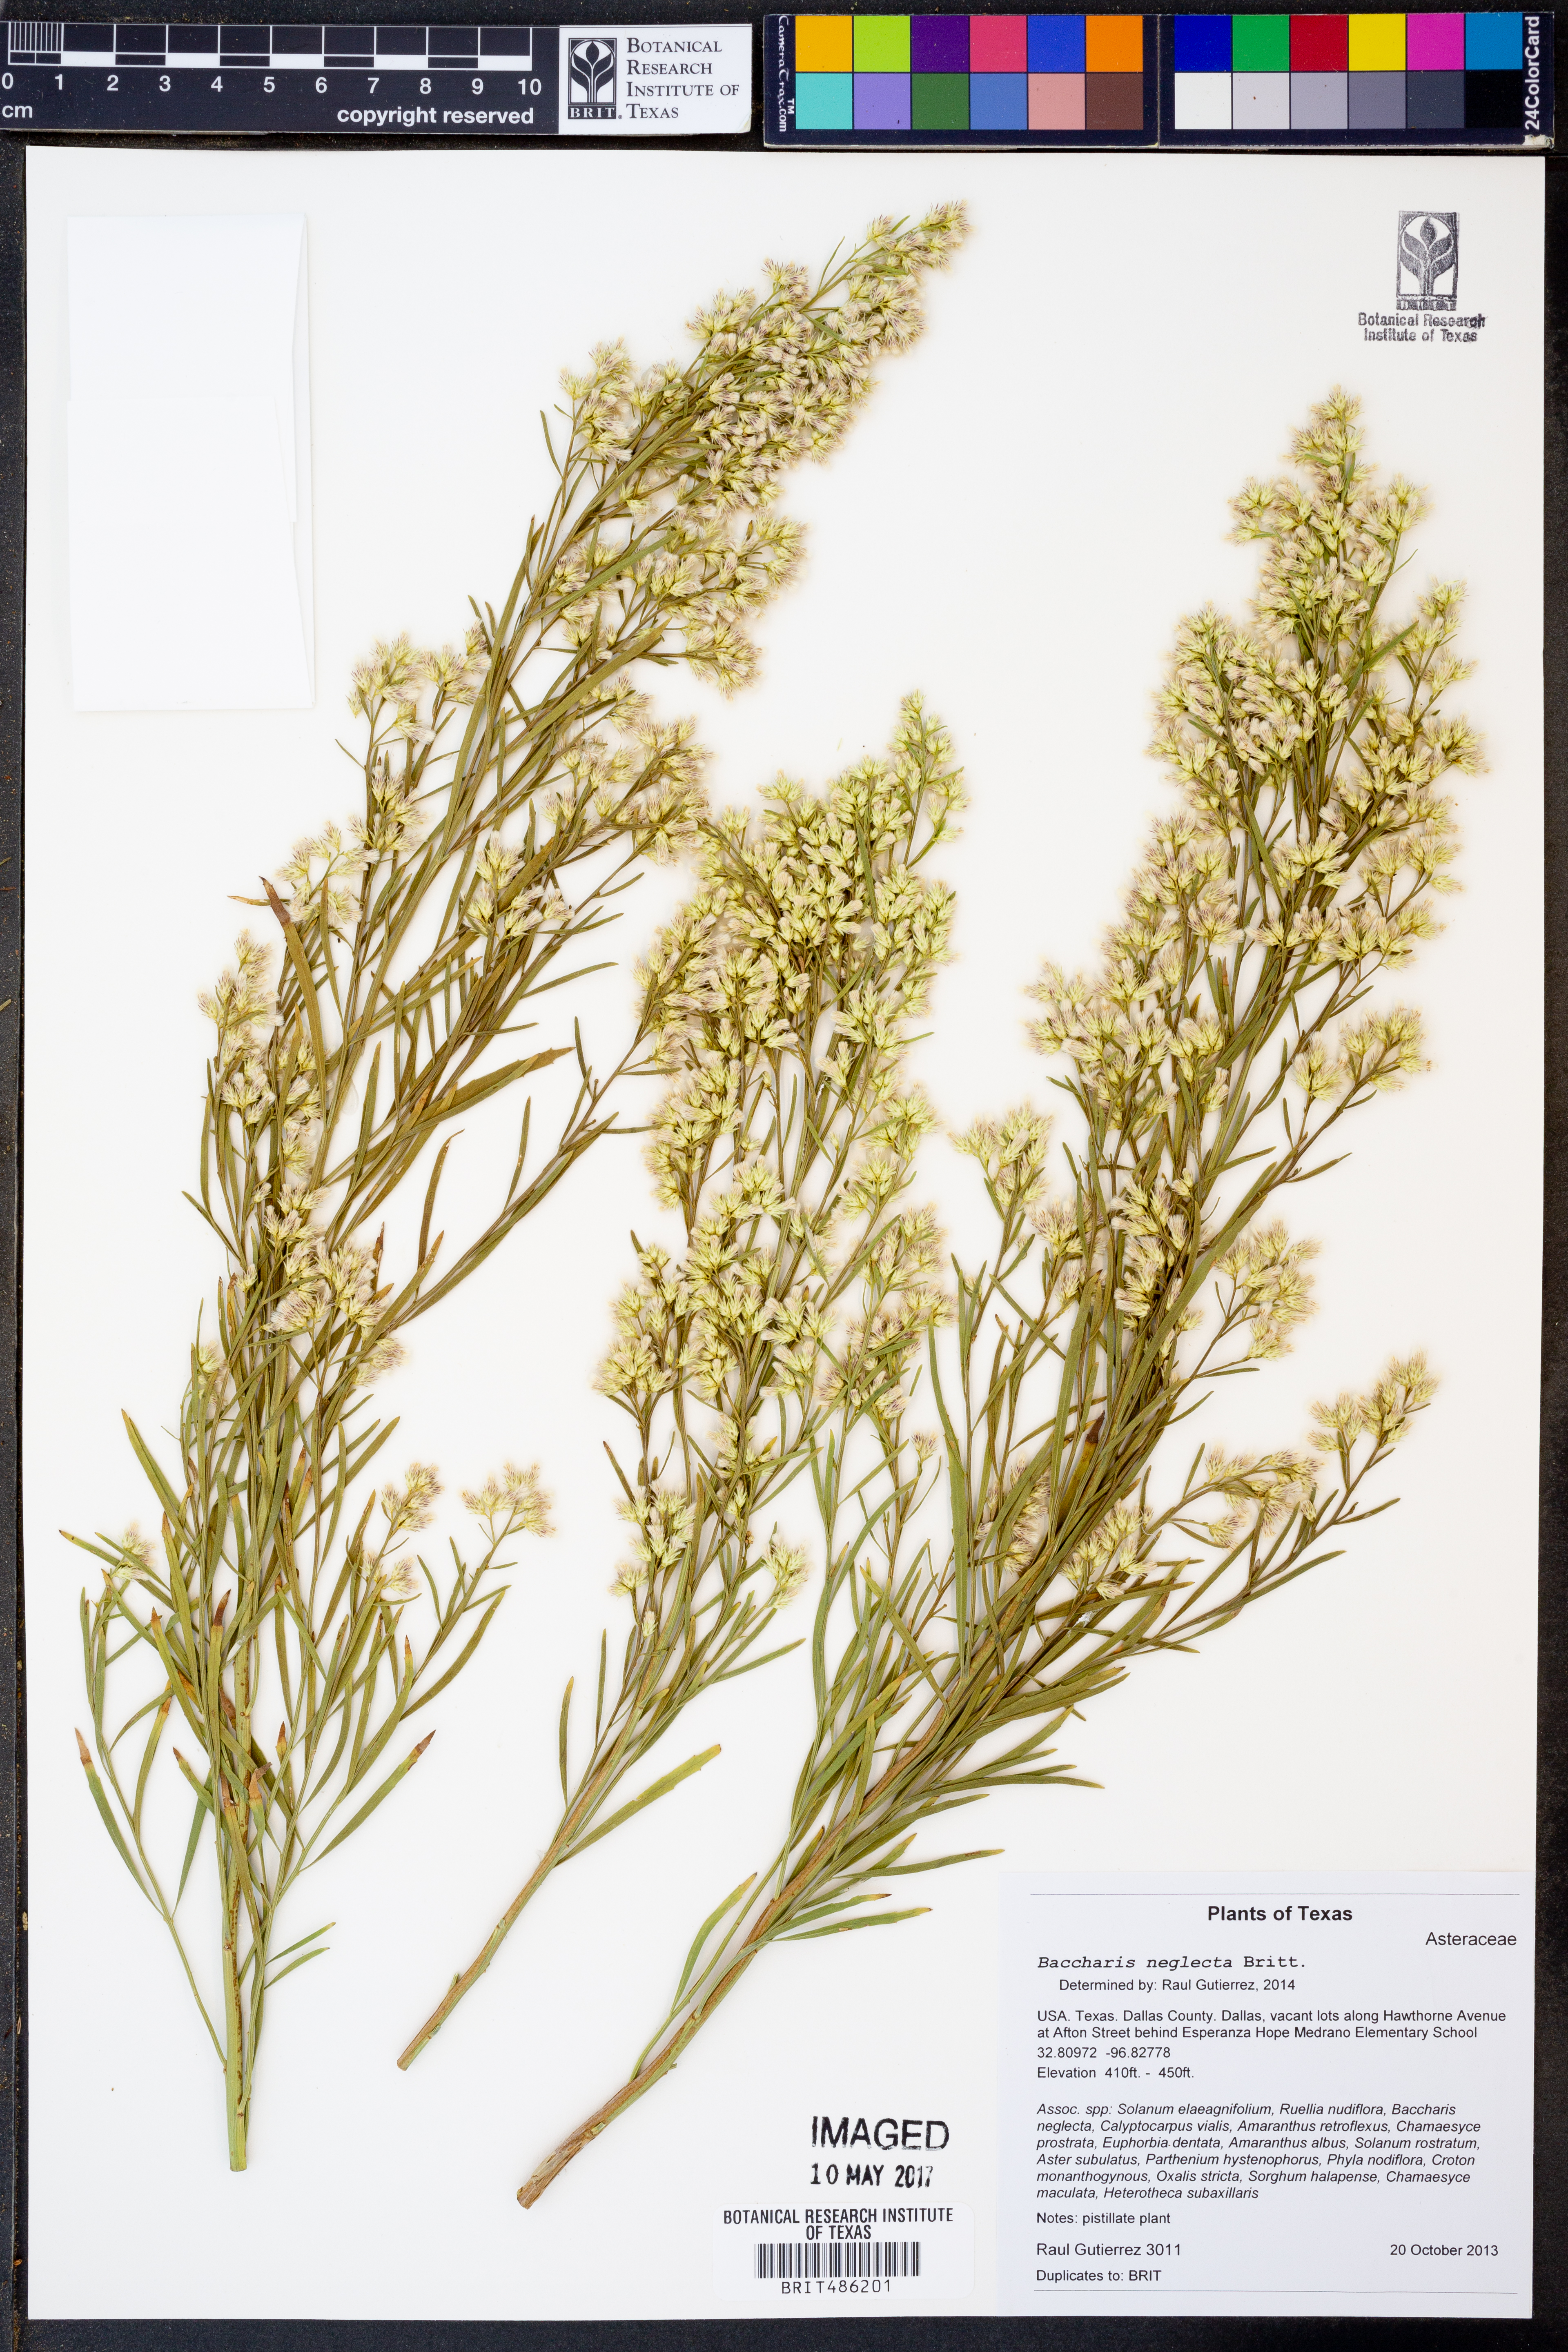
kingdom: Plantae
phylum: Tracheophyta
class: Magnoliopsida
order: Asterales
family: Asteraceae
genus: Baccharis
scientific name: Baccharis neglecta
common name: Roosevelt-weed
